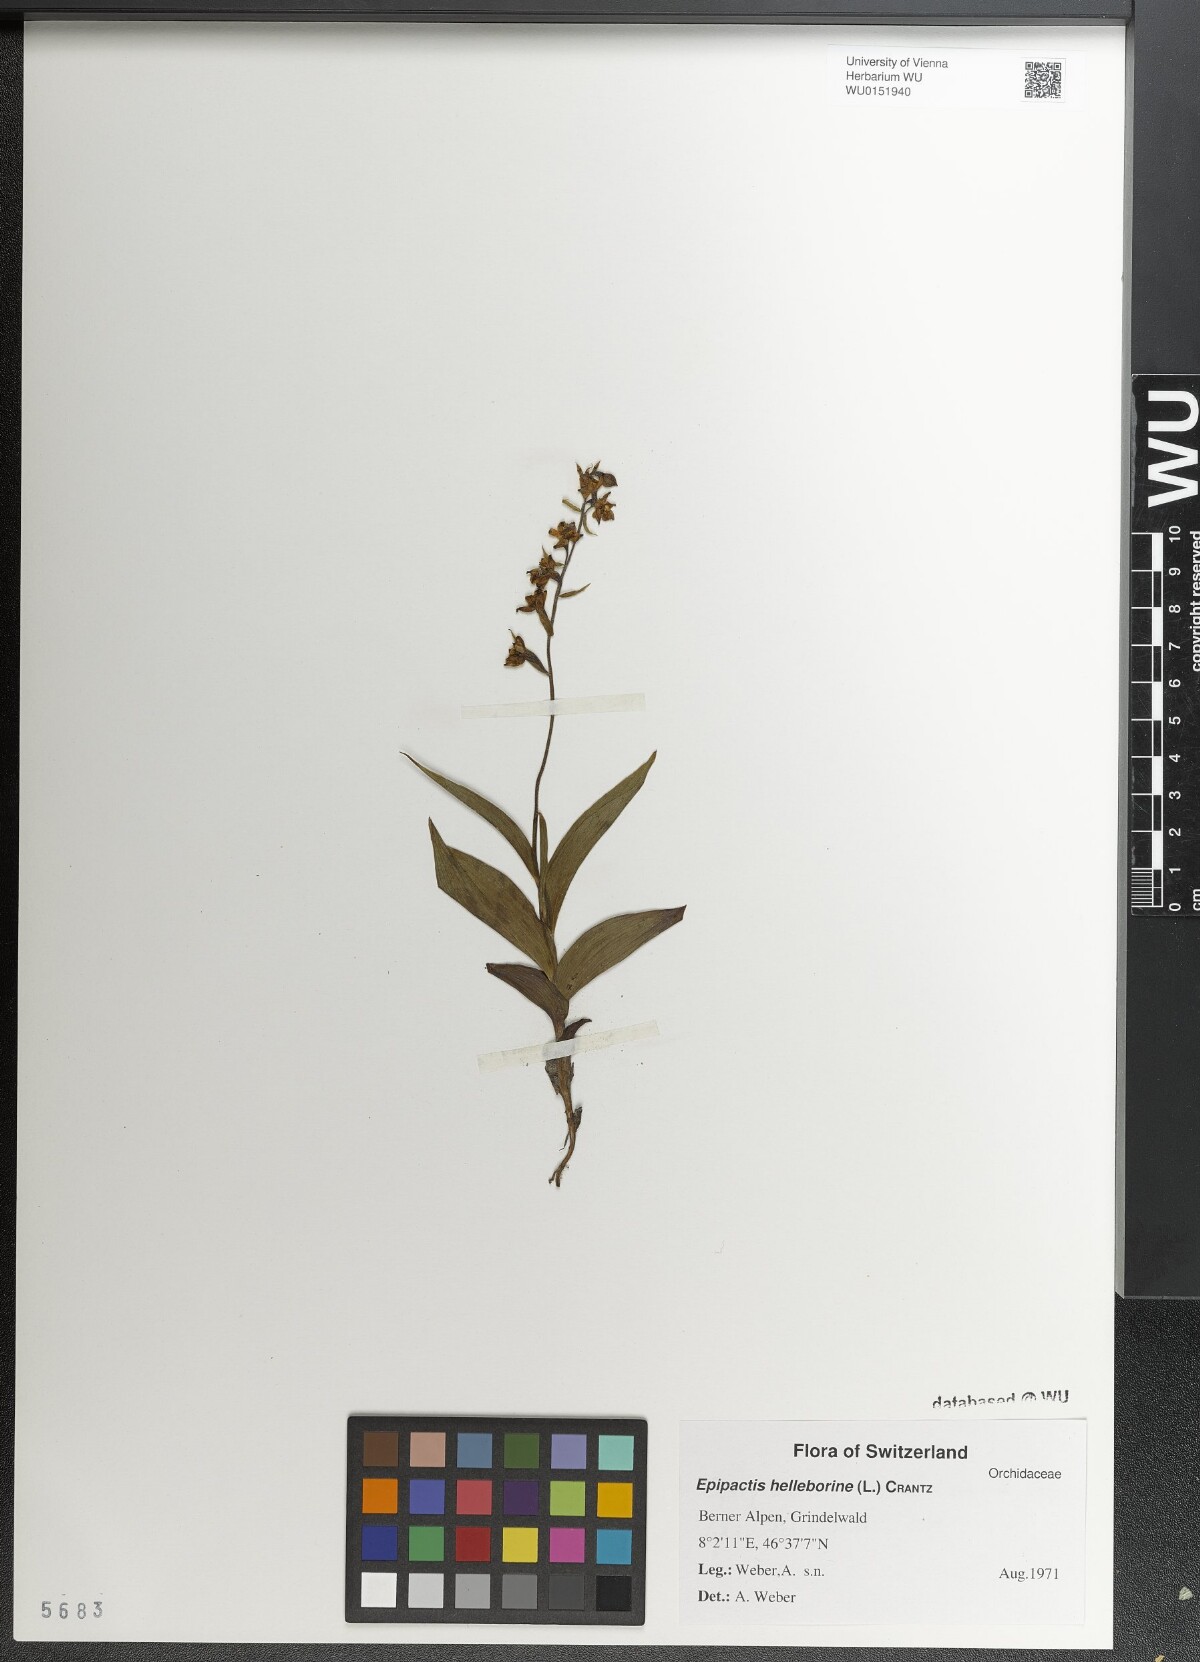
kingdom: Plantae
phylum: Tracheophyta
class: Liliopsida
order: Asparagales
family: Orchidaceae
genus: Epipactis
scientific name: Epipactis helleborine
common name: Broad-leaved helleborine
